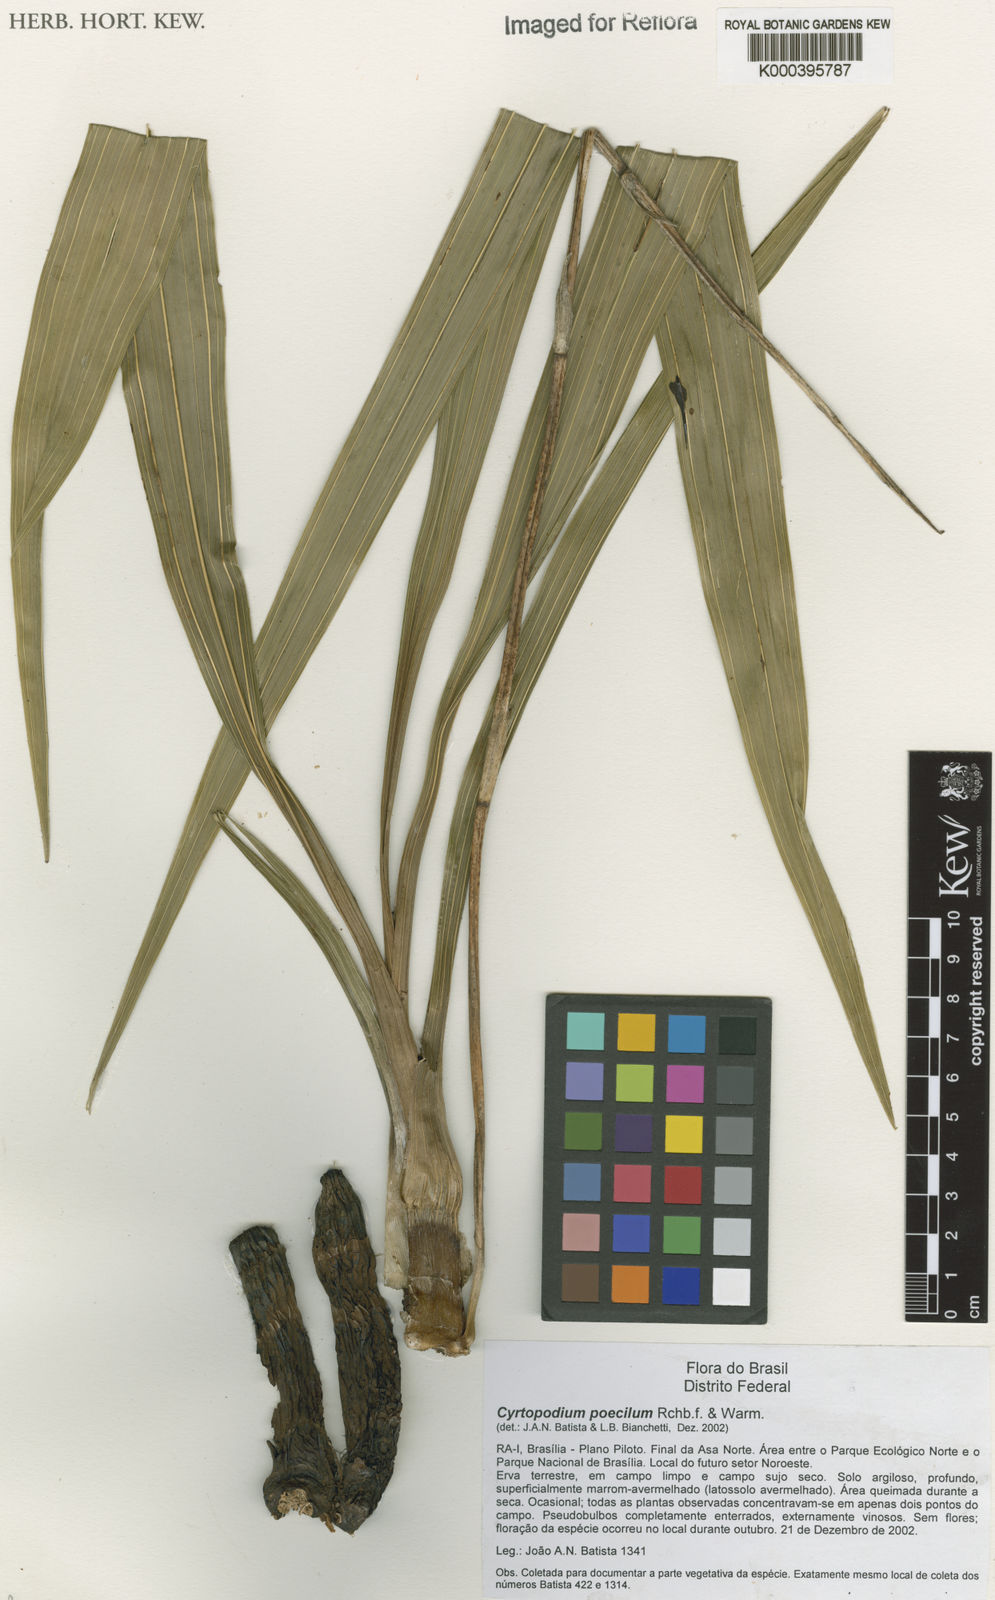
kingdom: Plantae
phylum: Tracheophyta
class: Liliopsida
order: Asparagales
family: Orchidaceae
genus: Cyrtopodium
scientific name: Cyrtopodium poecilum
